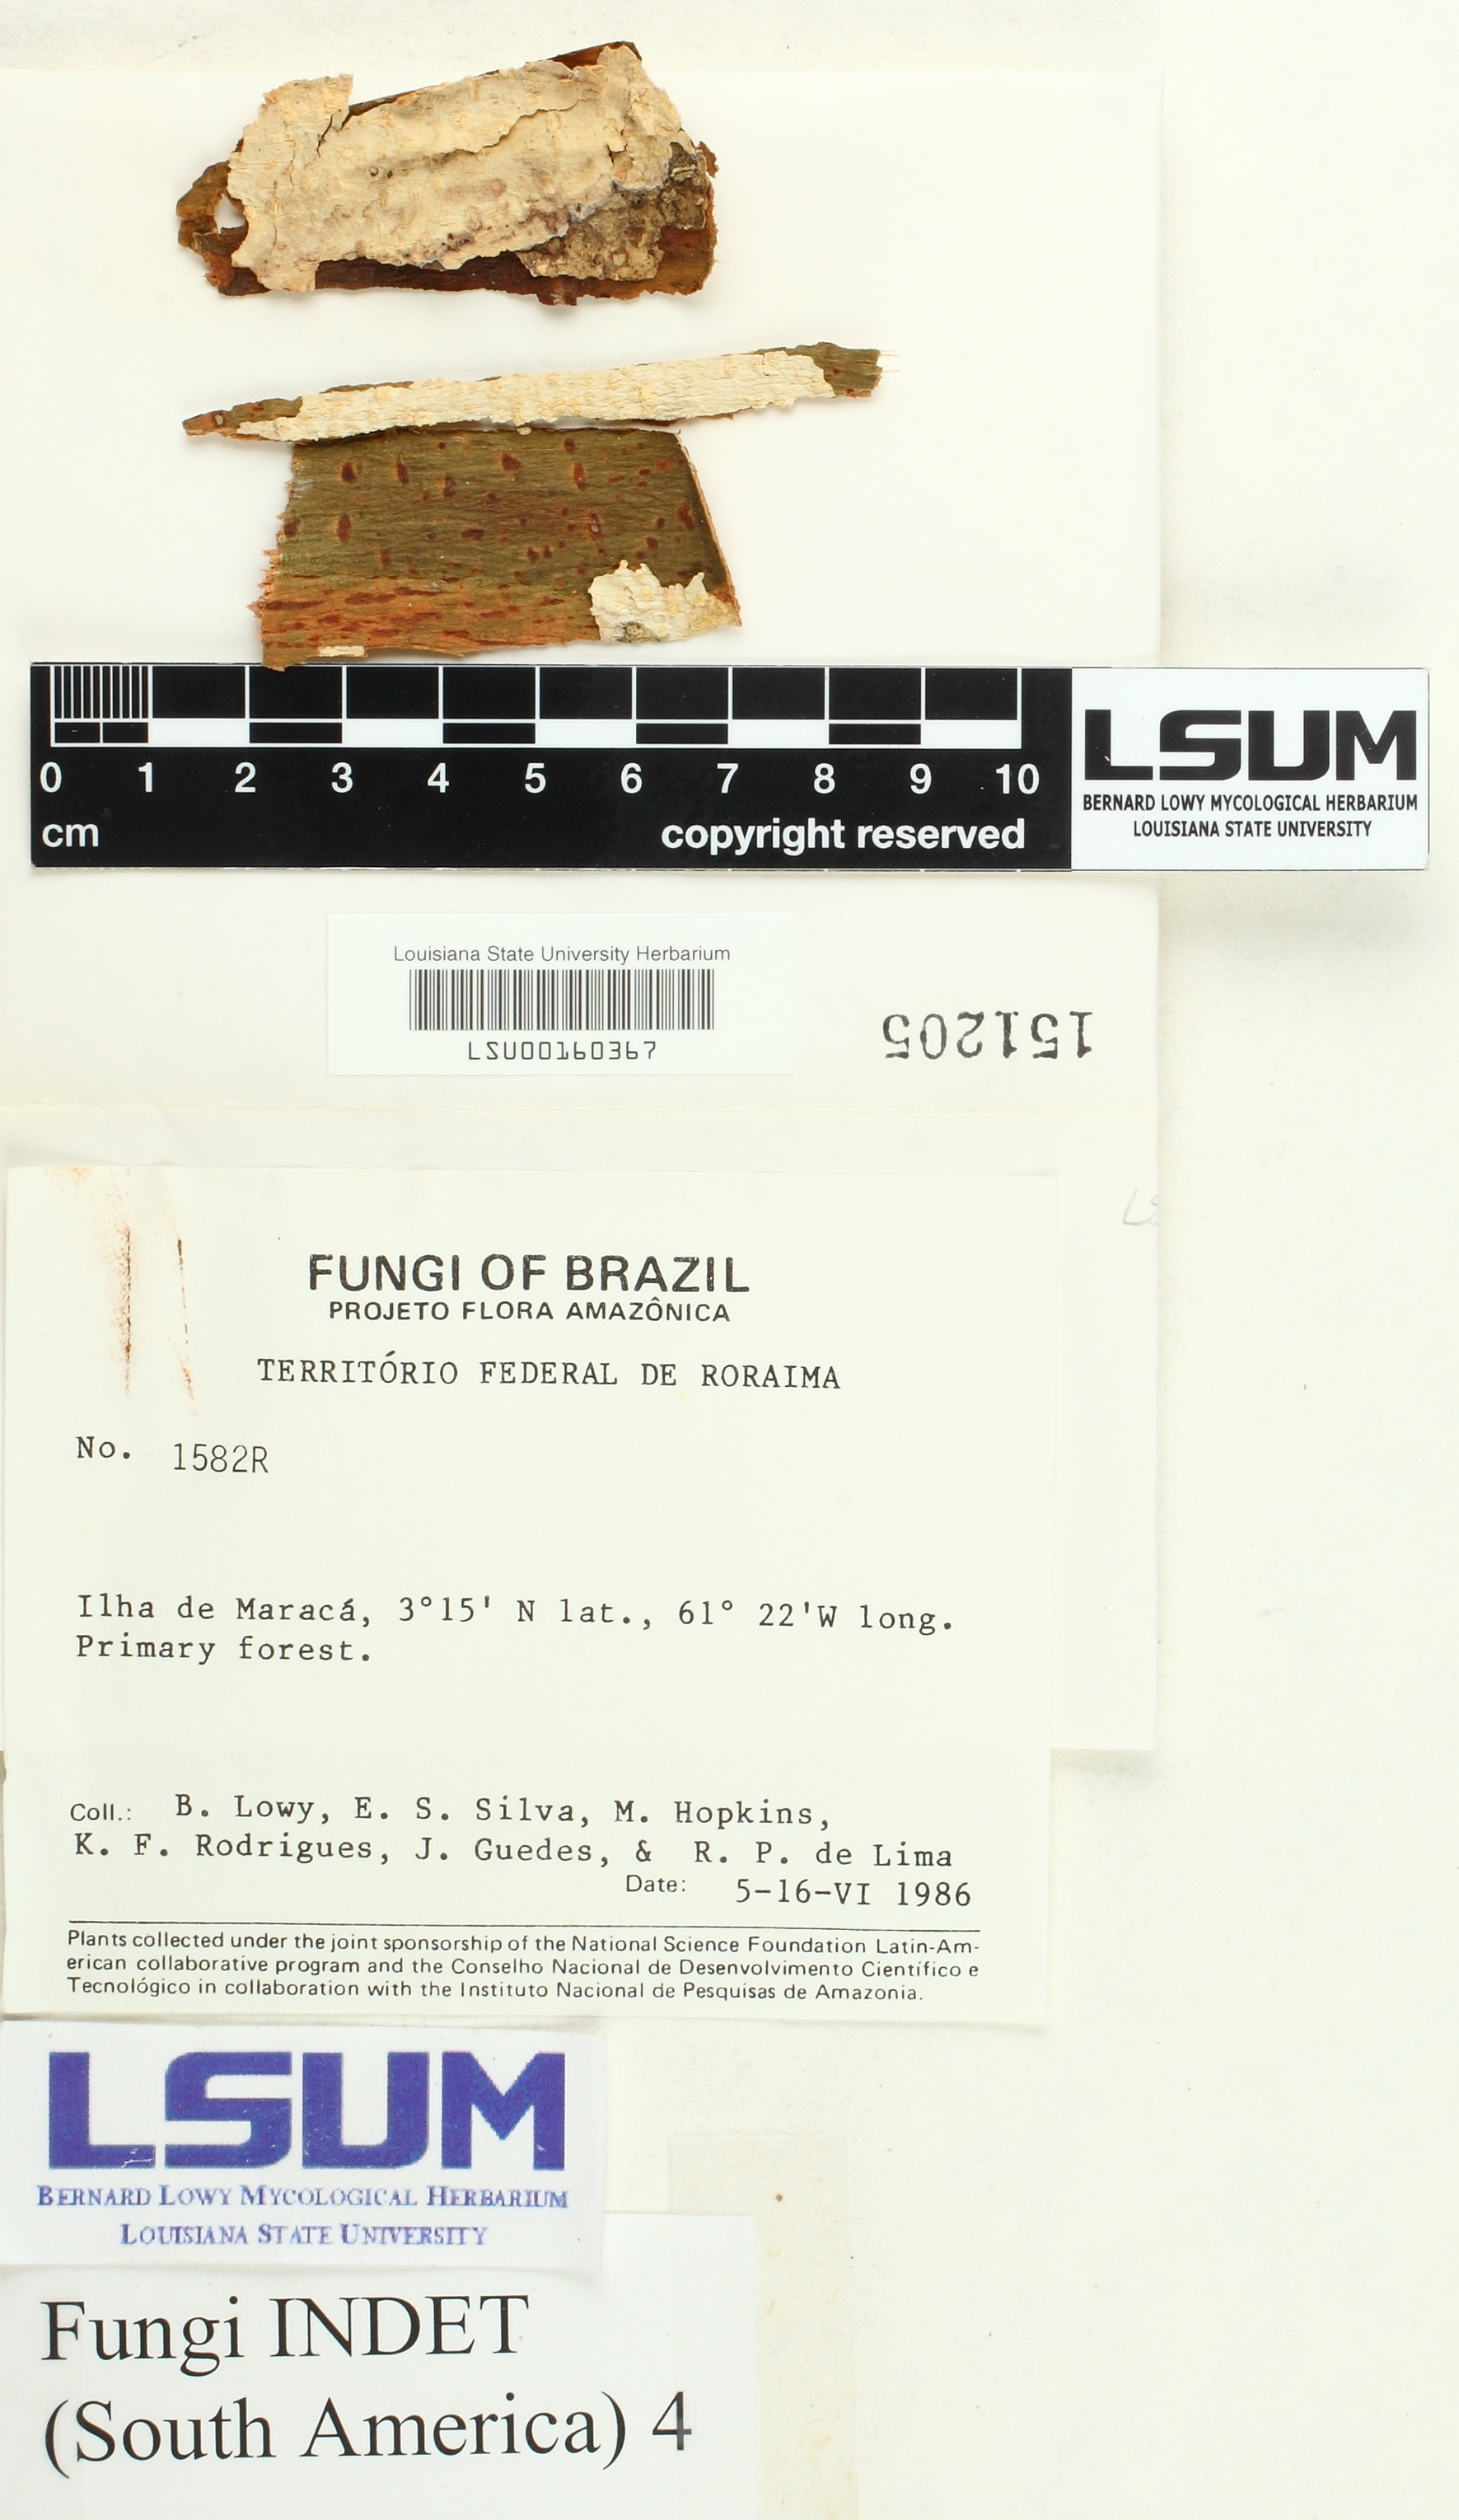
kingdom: Fungi
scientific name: Fungi
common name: Fungi
